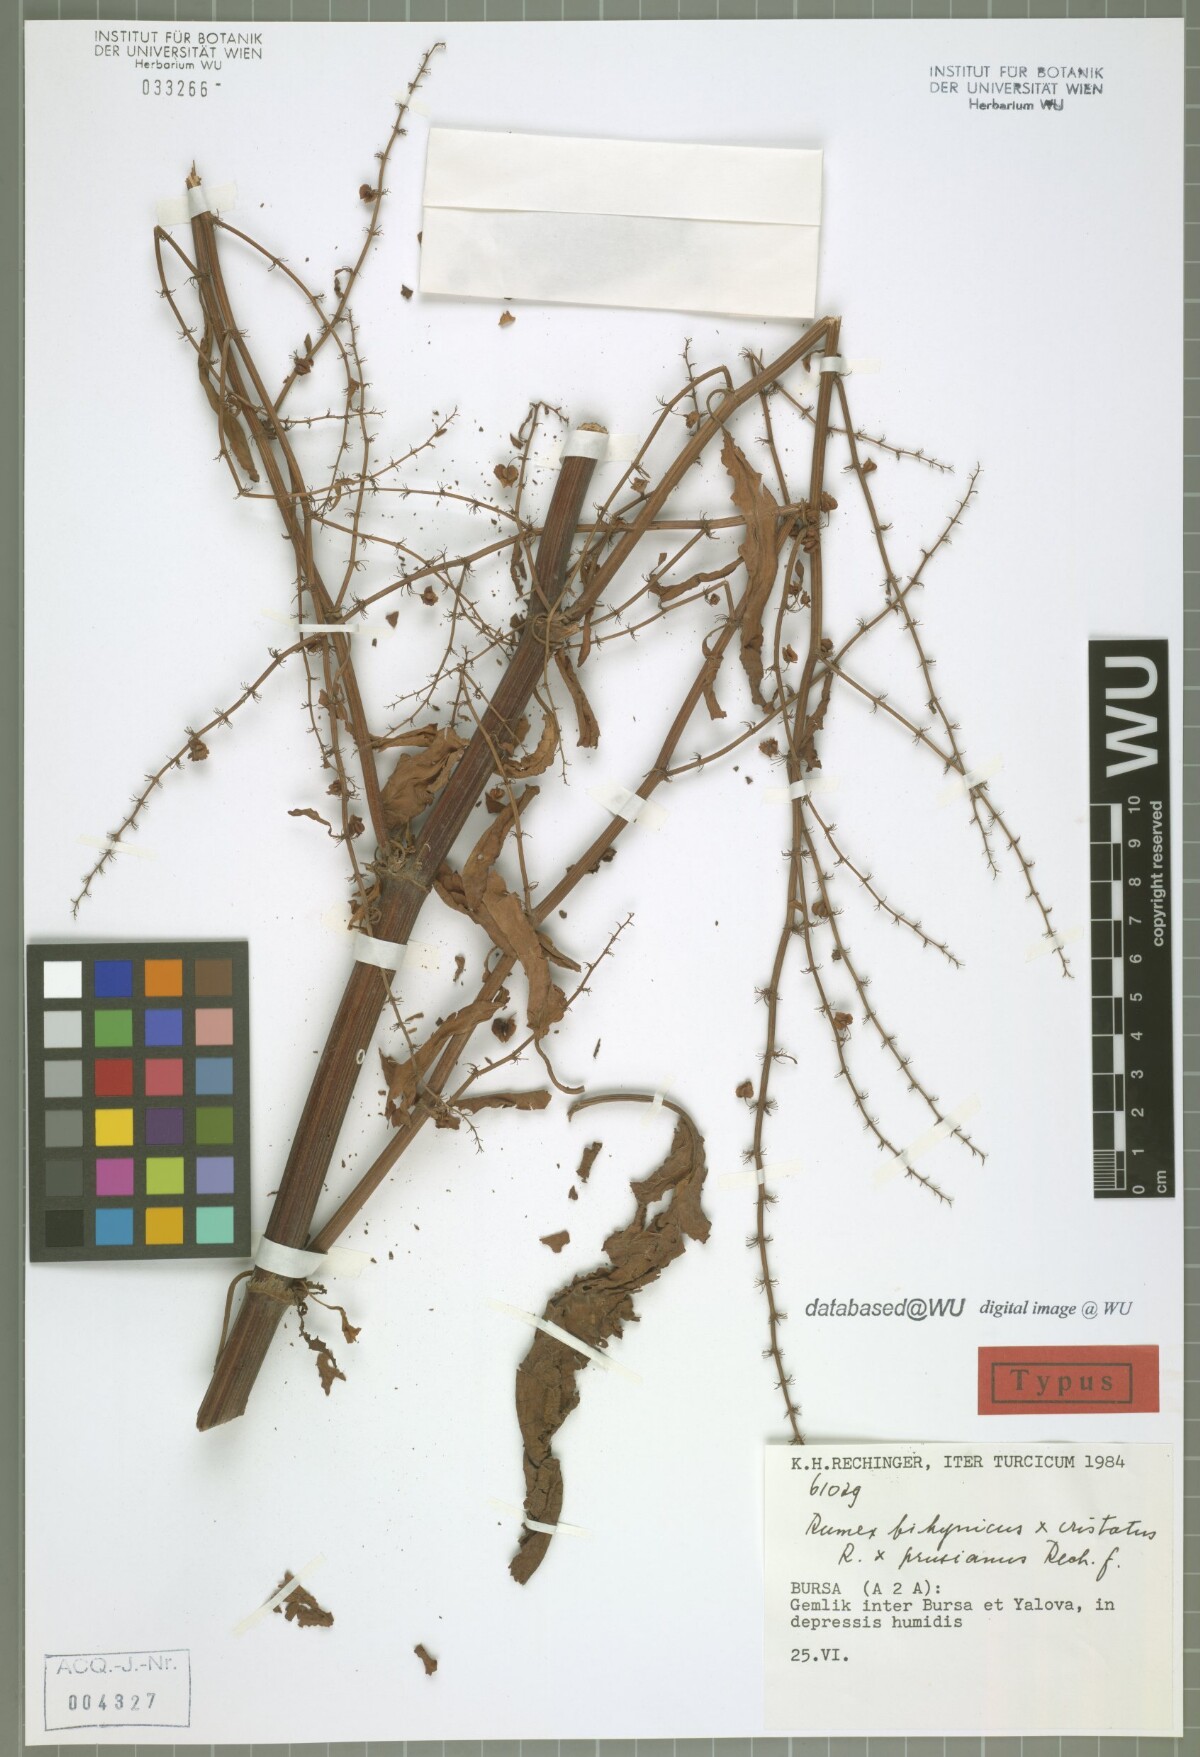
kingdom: Plantae
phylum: Tracheophyta
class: Magnoliopsida
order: Caryophyllales
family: Polygonaceae
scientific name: Polygonaceae
